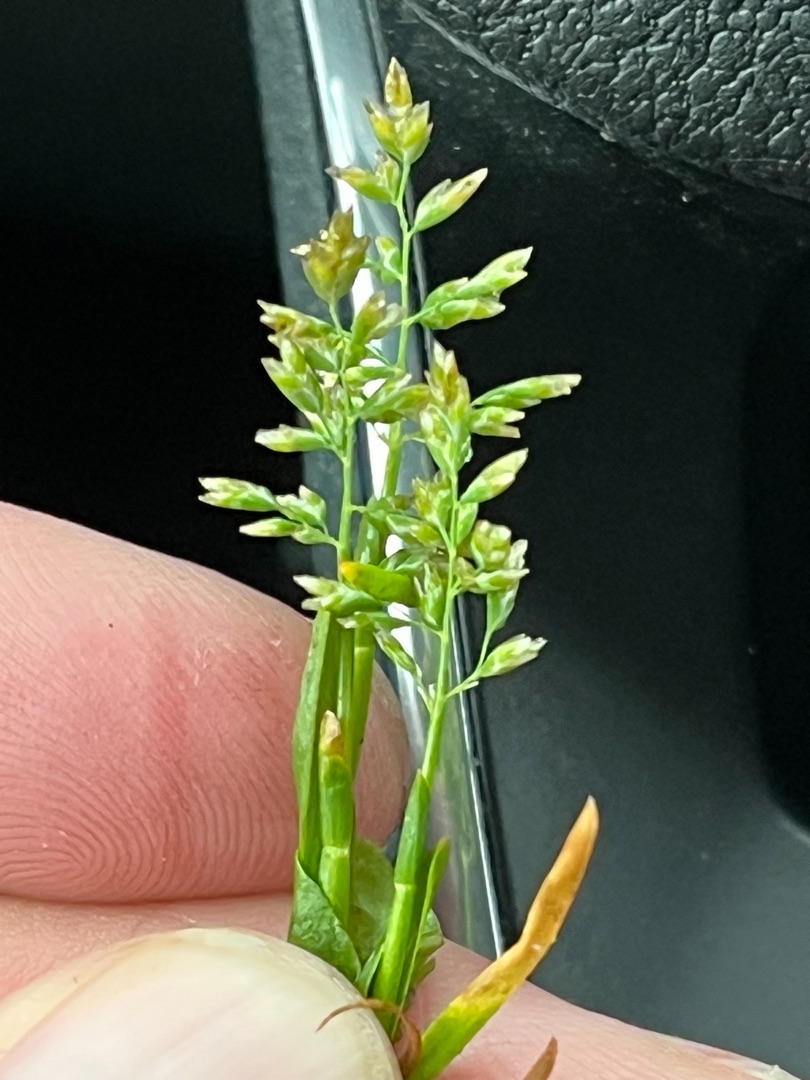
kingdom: Plantae
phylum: Tracheophyta
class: Liliopsida
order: Poales
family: Poaceae
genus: Poa
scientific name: Poa annua
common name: Enårig rapgræs
